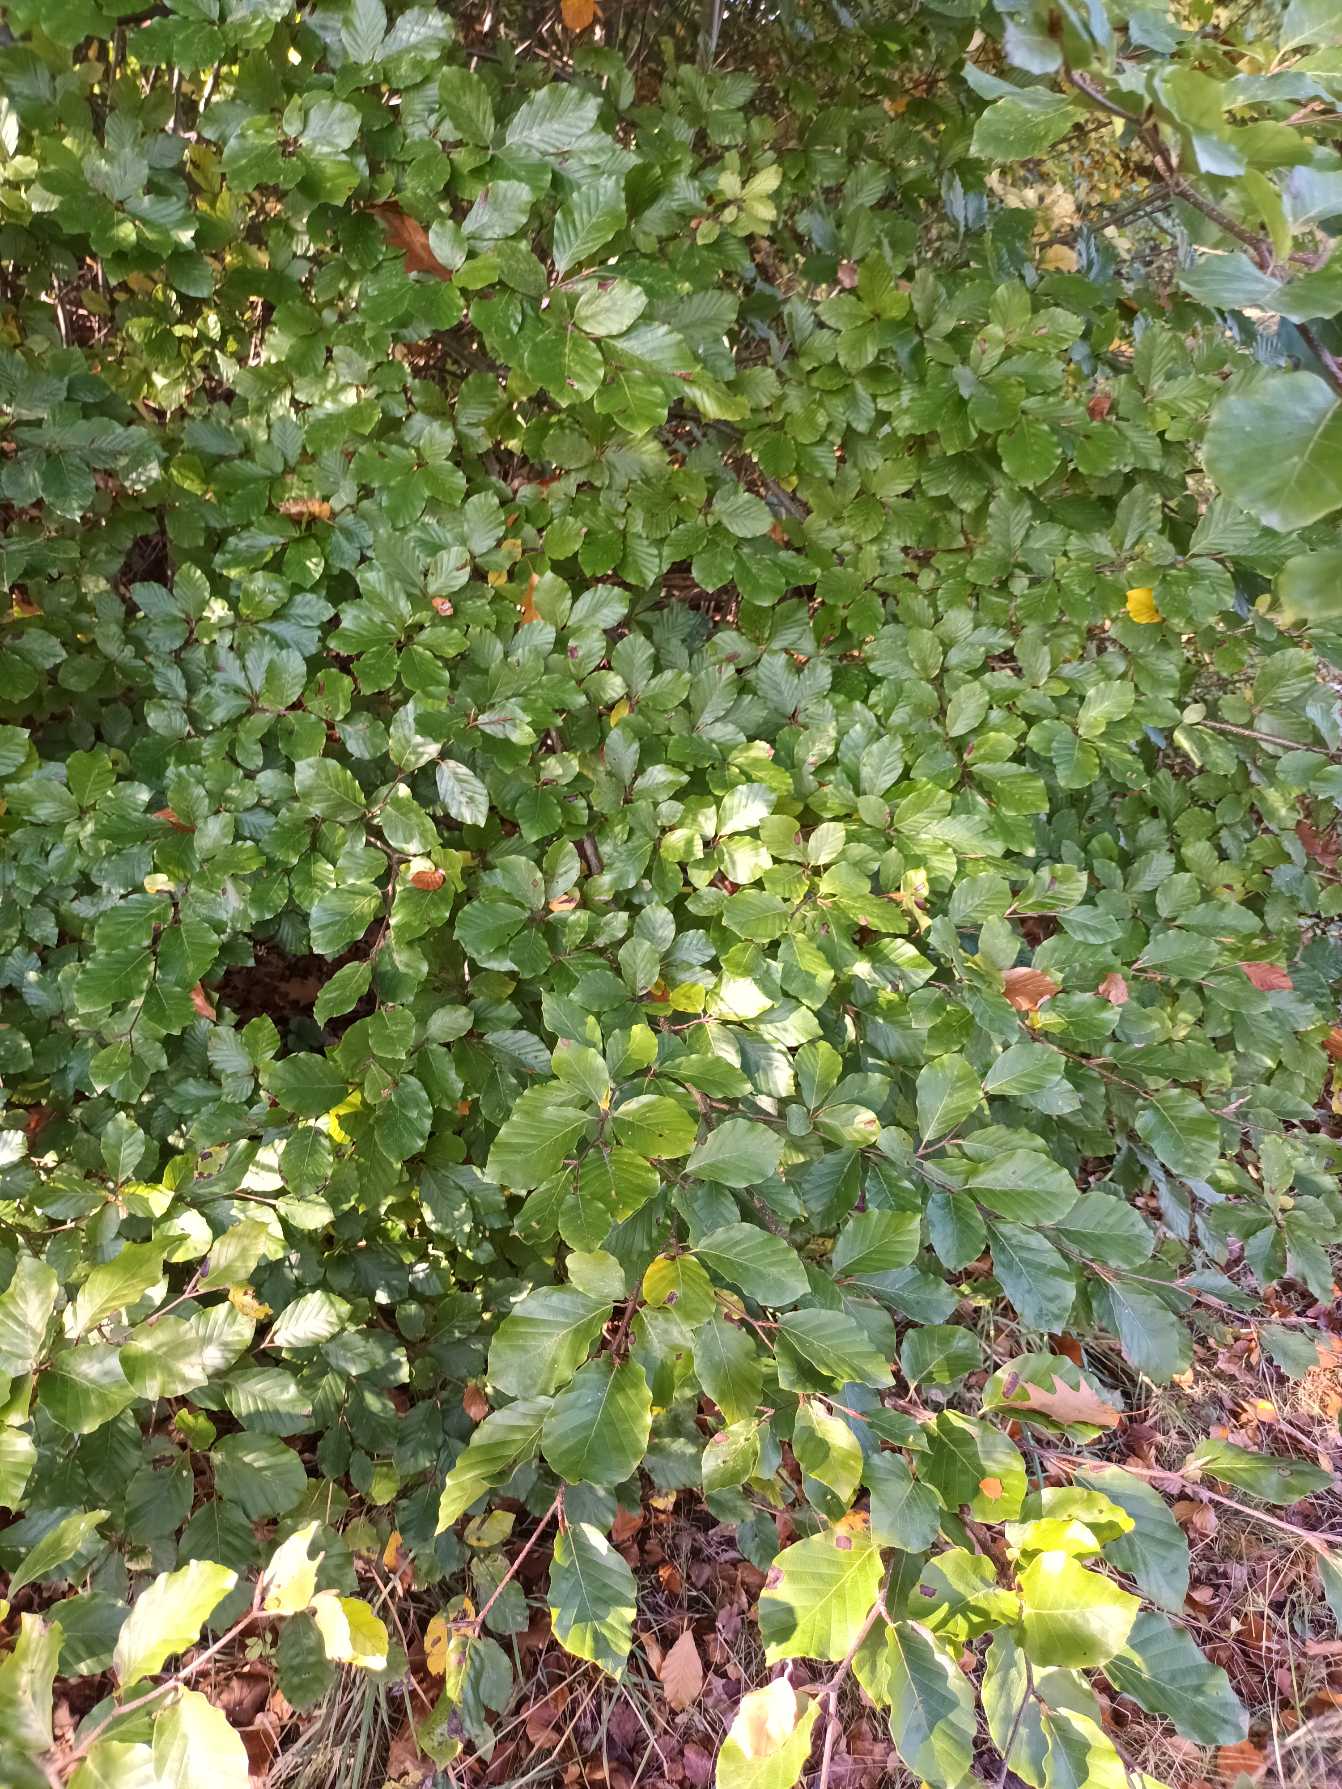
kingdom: Plantae
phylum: Tracheophyta
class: Magnoliopsida
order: Fagales
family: Fagaceae
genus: Fagus
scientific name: Fagus sylvatica
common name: Bøg
